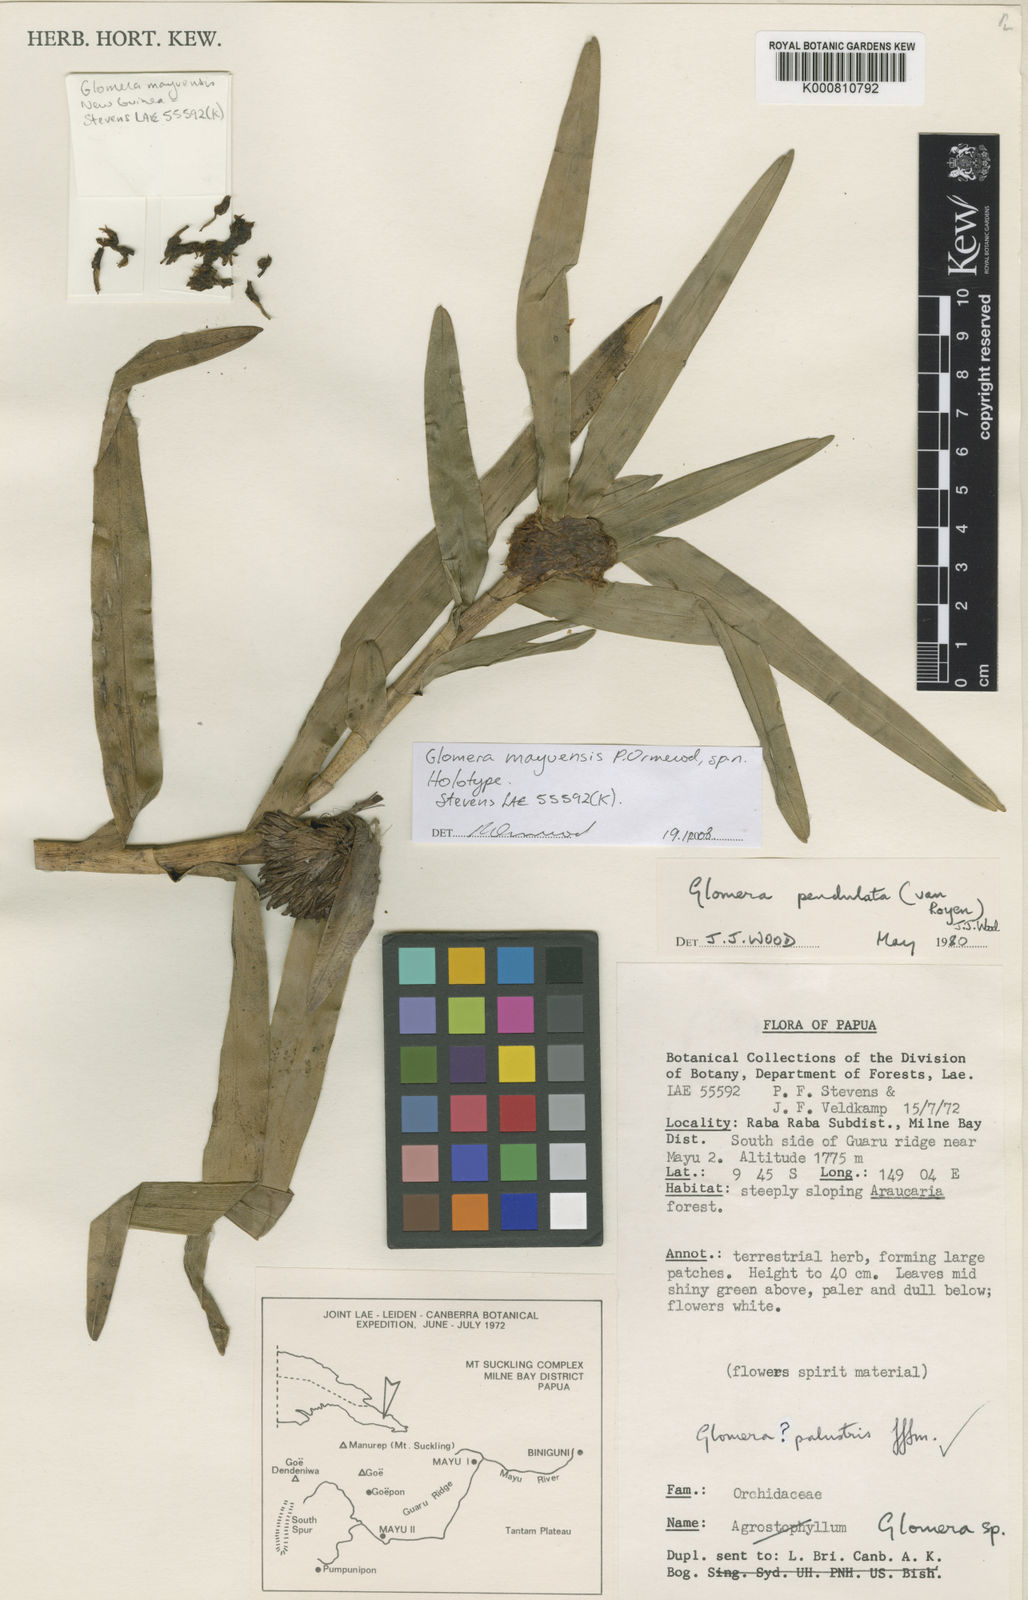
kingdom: Plantae
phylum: Tracheophyta
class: Liliopsida
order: Asparagales
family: Orchidaceae
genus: Glomera
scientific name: Glomera mayuensis
